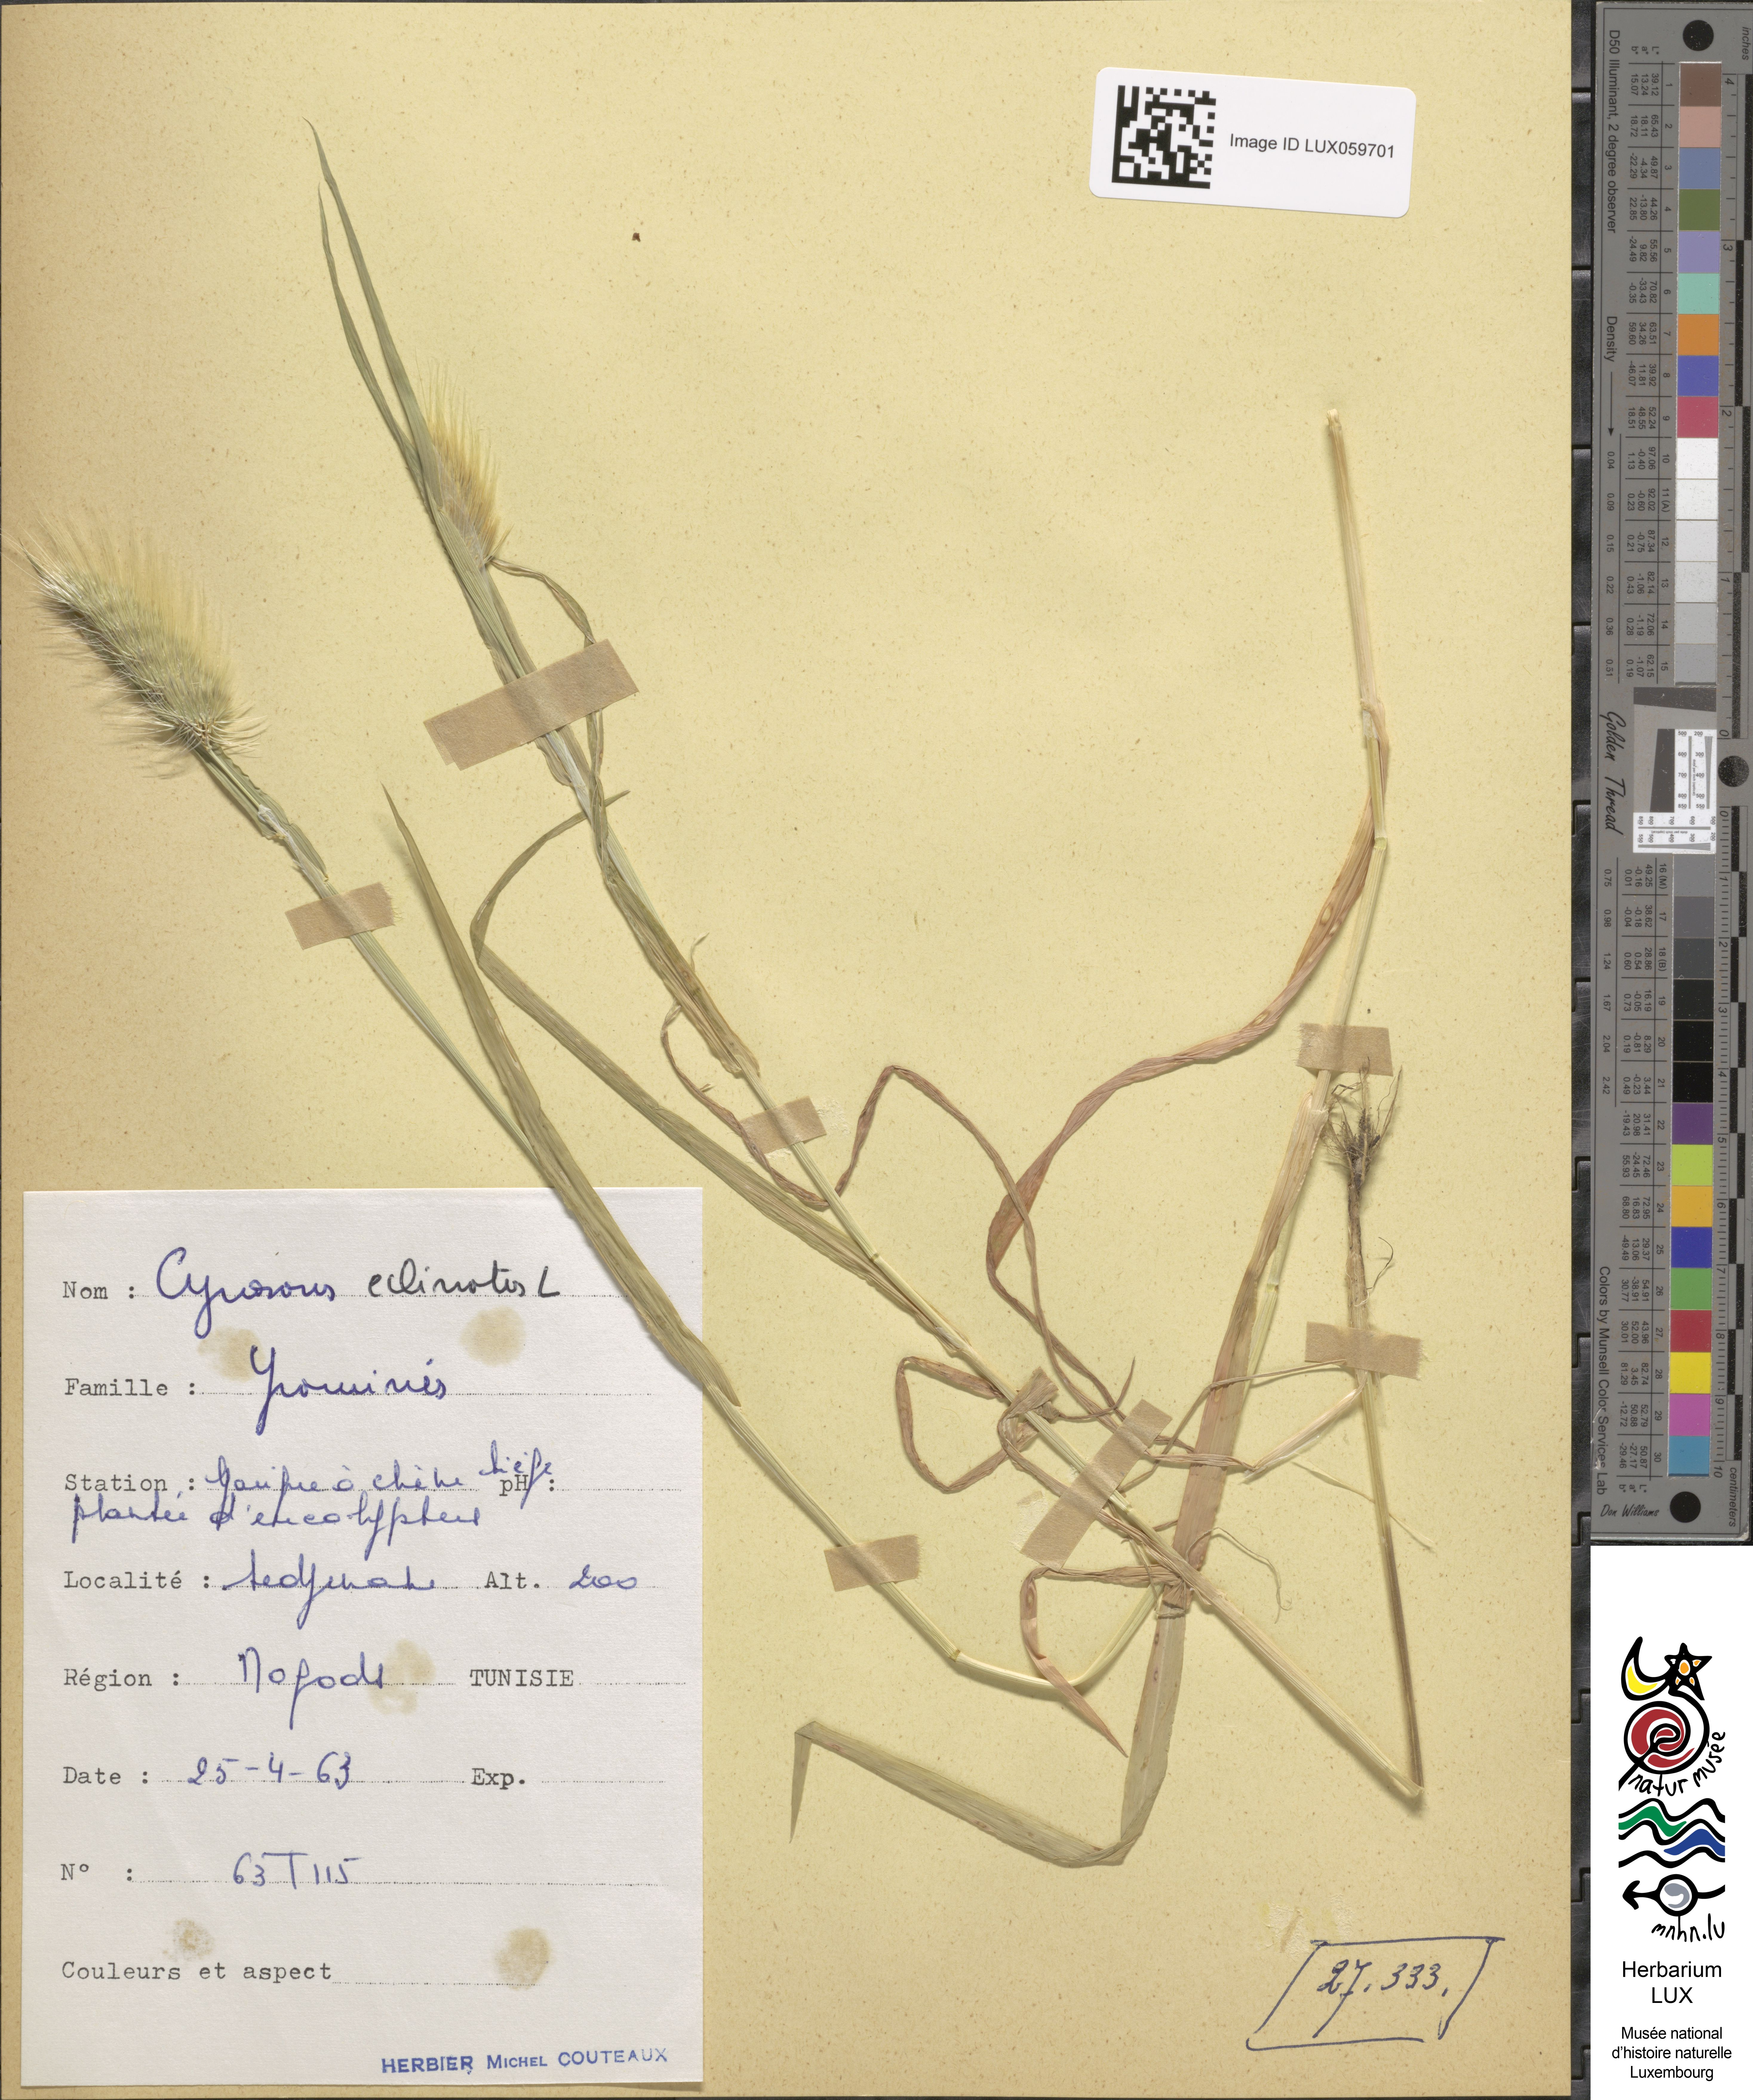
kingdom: Plantae
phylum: Tracheophyta
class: Liliopsida
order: Poales
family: Poaceae
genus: Cynosurus
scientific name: Cynosurus echinatus
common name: Rough dog's-tail
